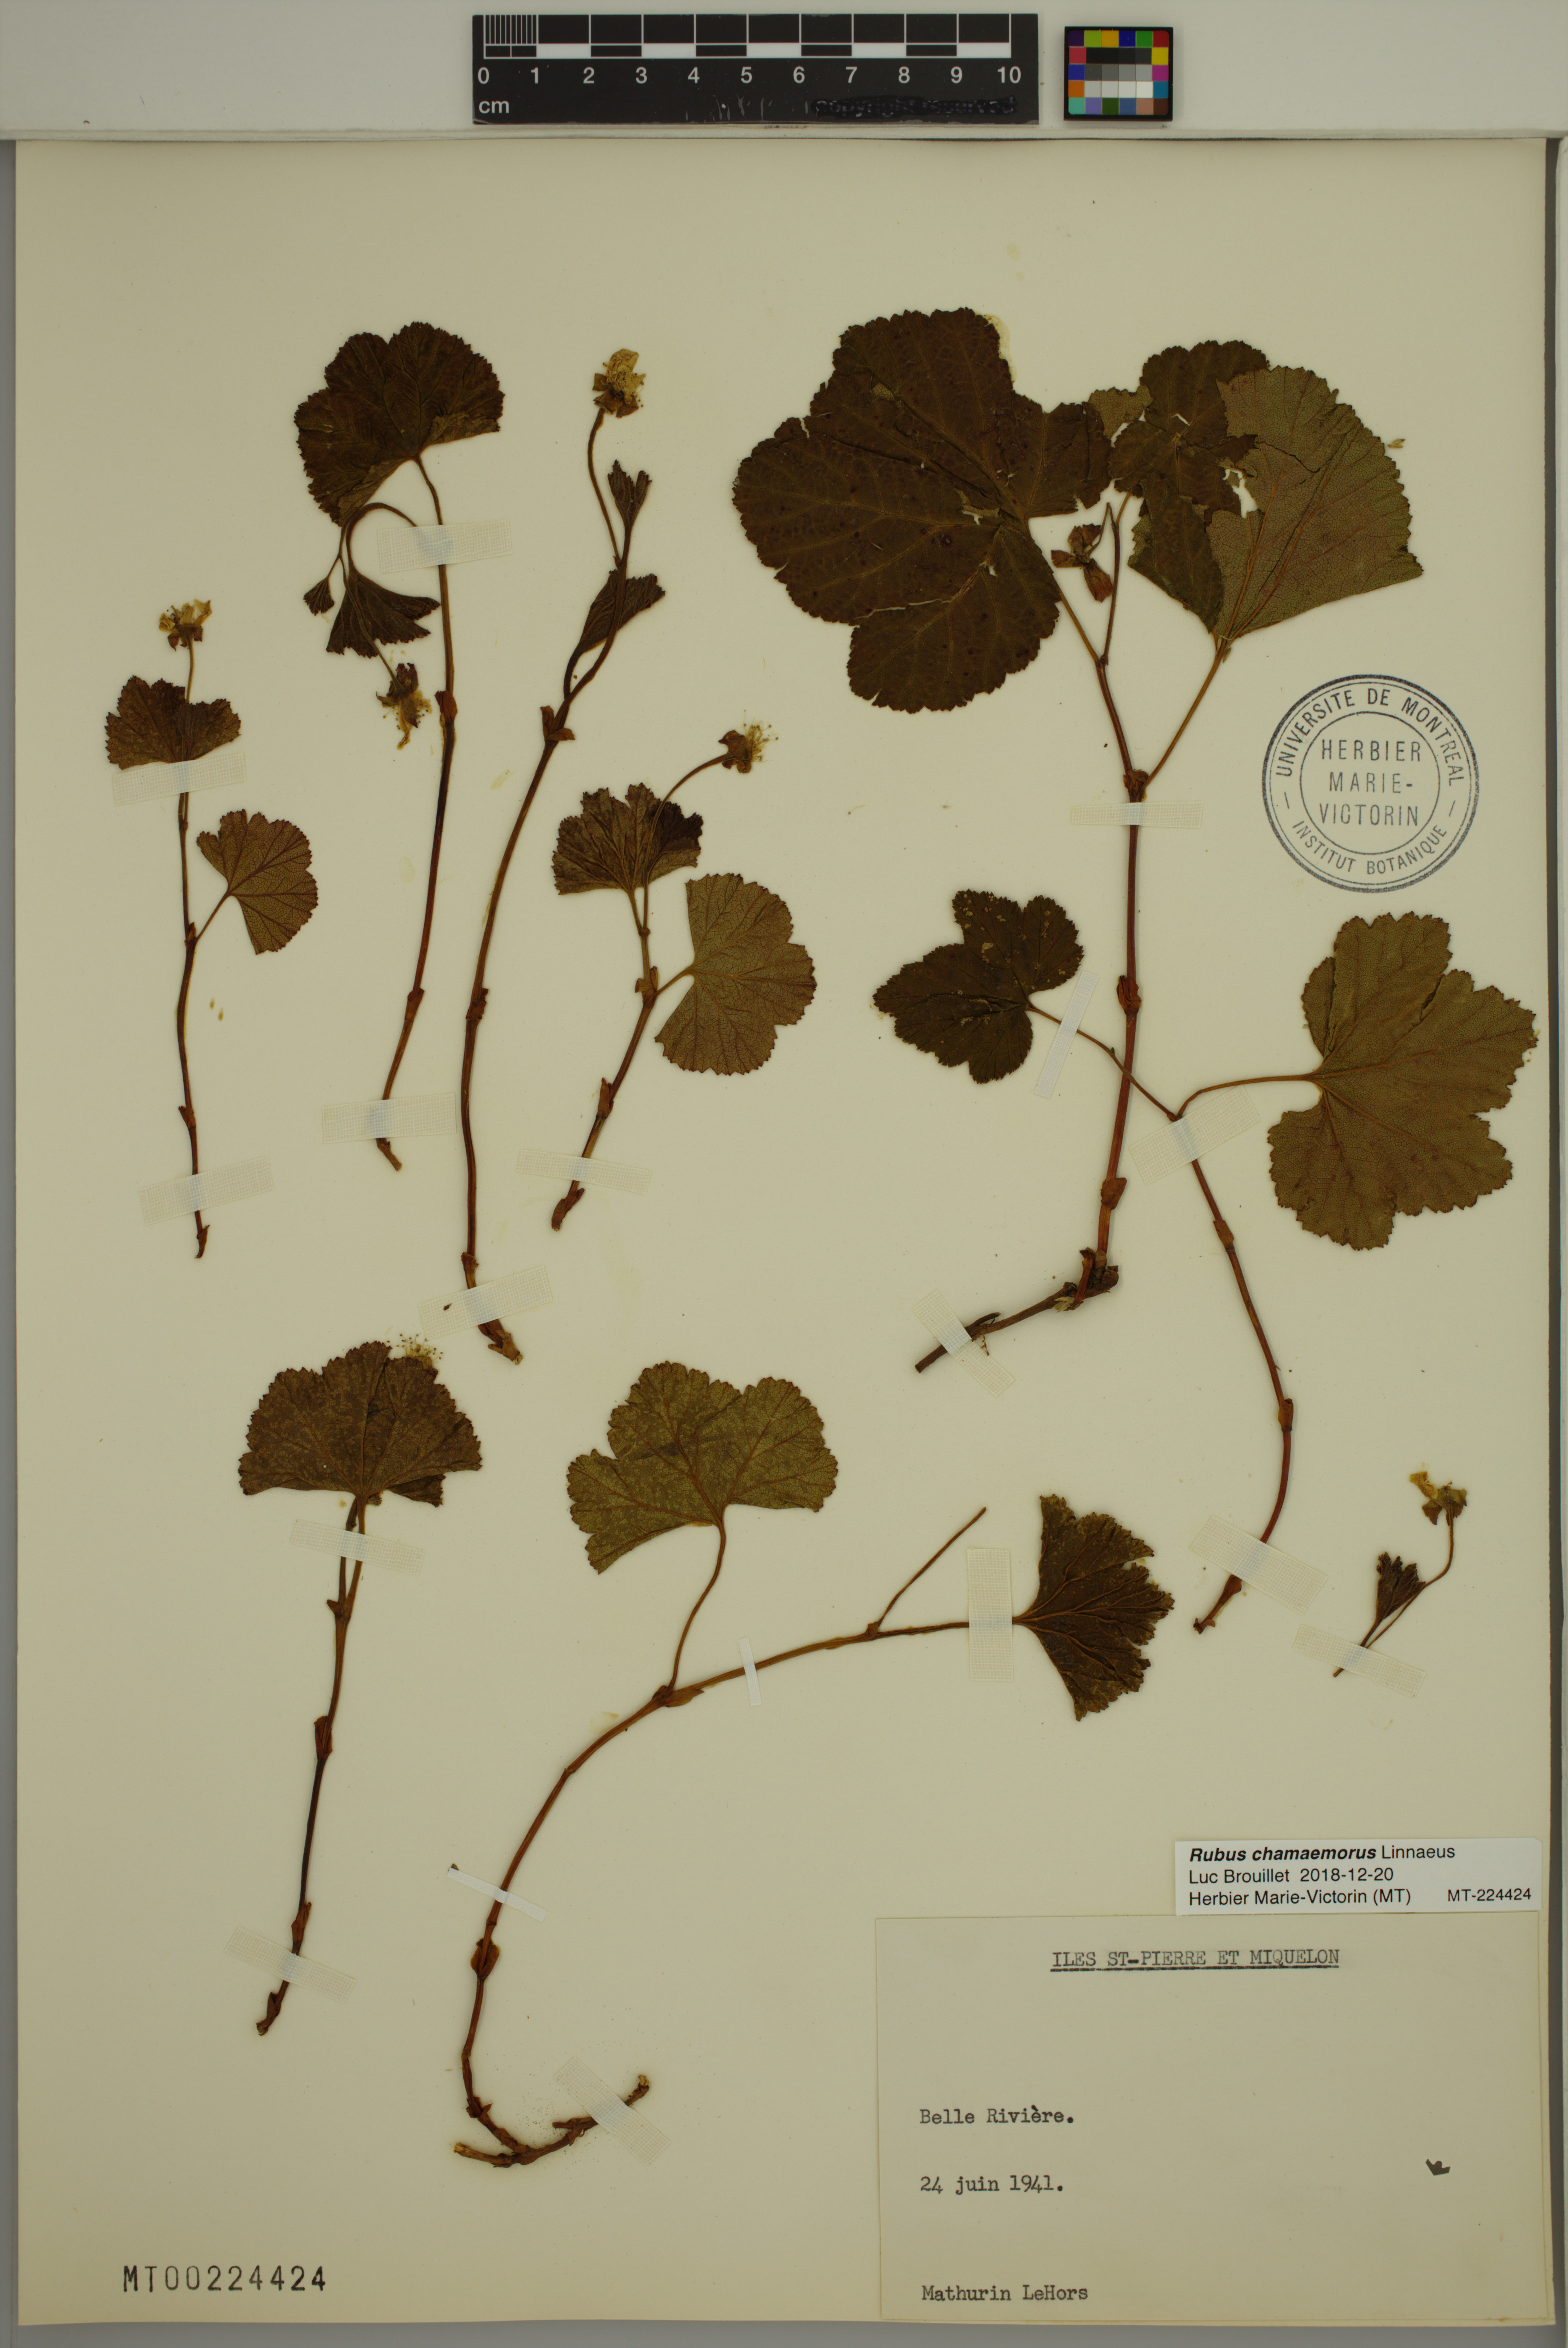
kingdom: Plantae
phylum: Tracheophyta
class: Magnoliopsida
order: Rosales
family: Rosaceae
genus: Rubus
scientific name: Rubus chamaemorus
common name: Cloudberry
